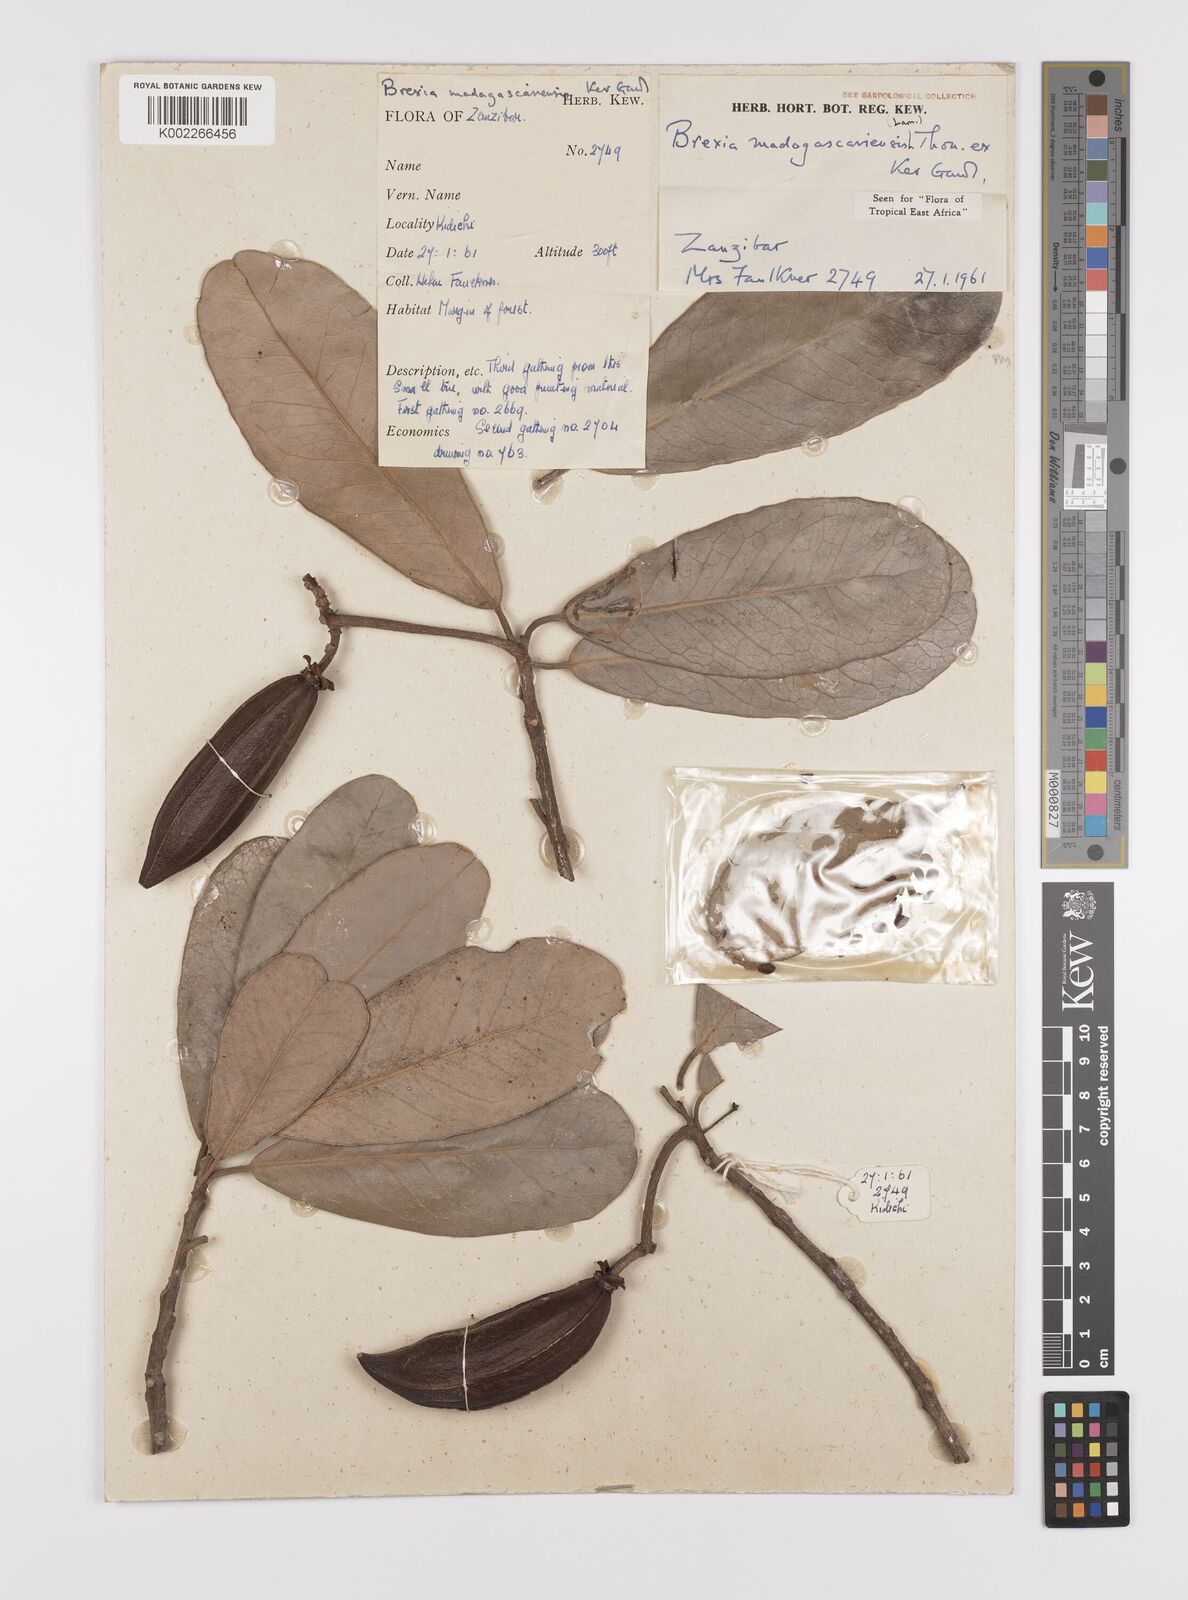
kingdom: Plantae
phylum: Tracheophyta
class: Magnoliopsida
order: Celastrales
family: Celastraceae
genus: Brexia
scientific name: Brexia madagascariensis
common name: Brexia
